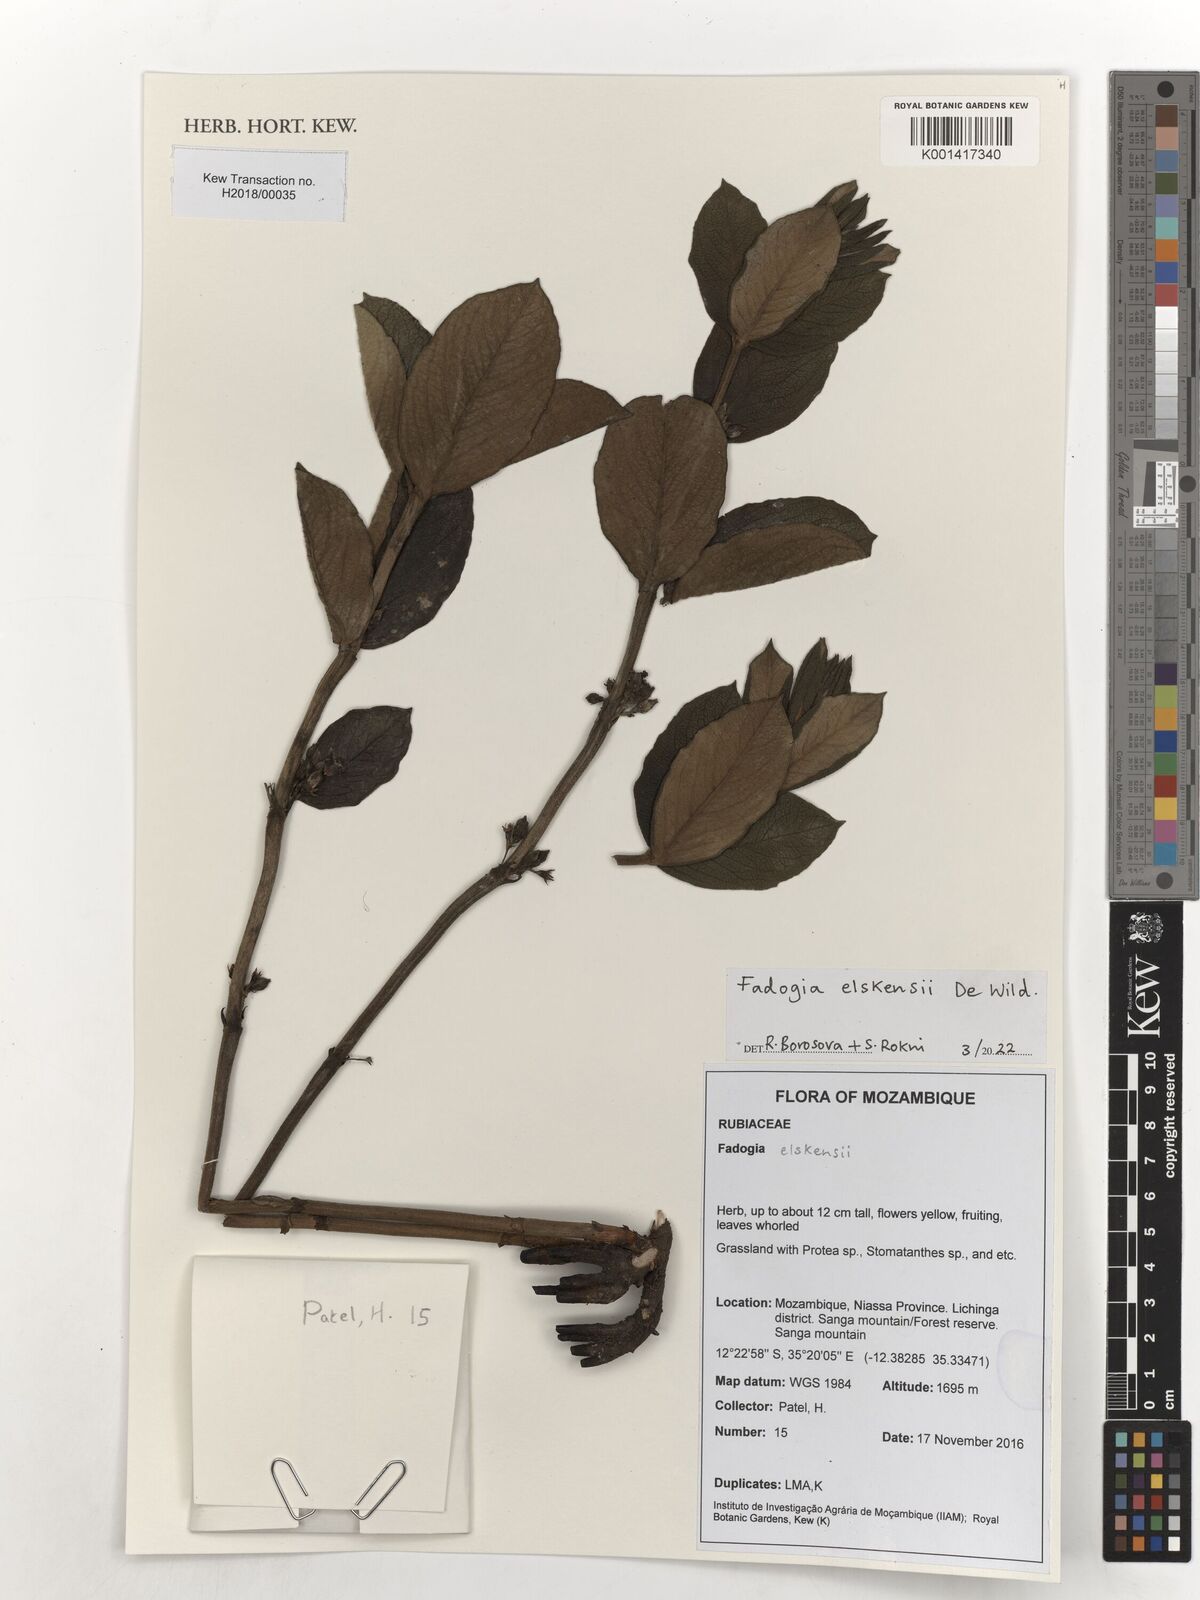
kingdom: Plantae
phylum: Tracheophyta
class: Magnoliopsida
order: Gentianales
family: Rubiaceae
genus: Fadogia
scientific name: Fadogia elskensii
